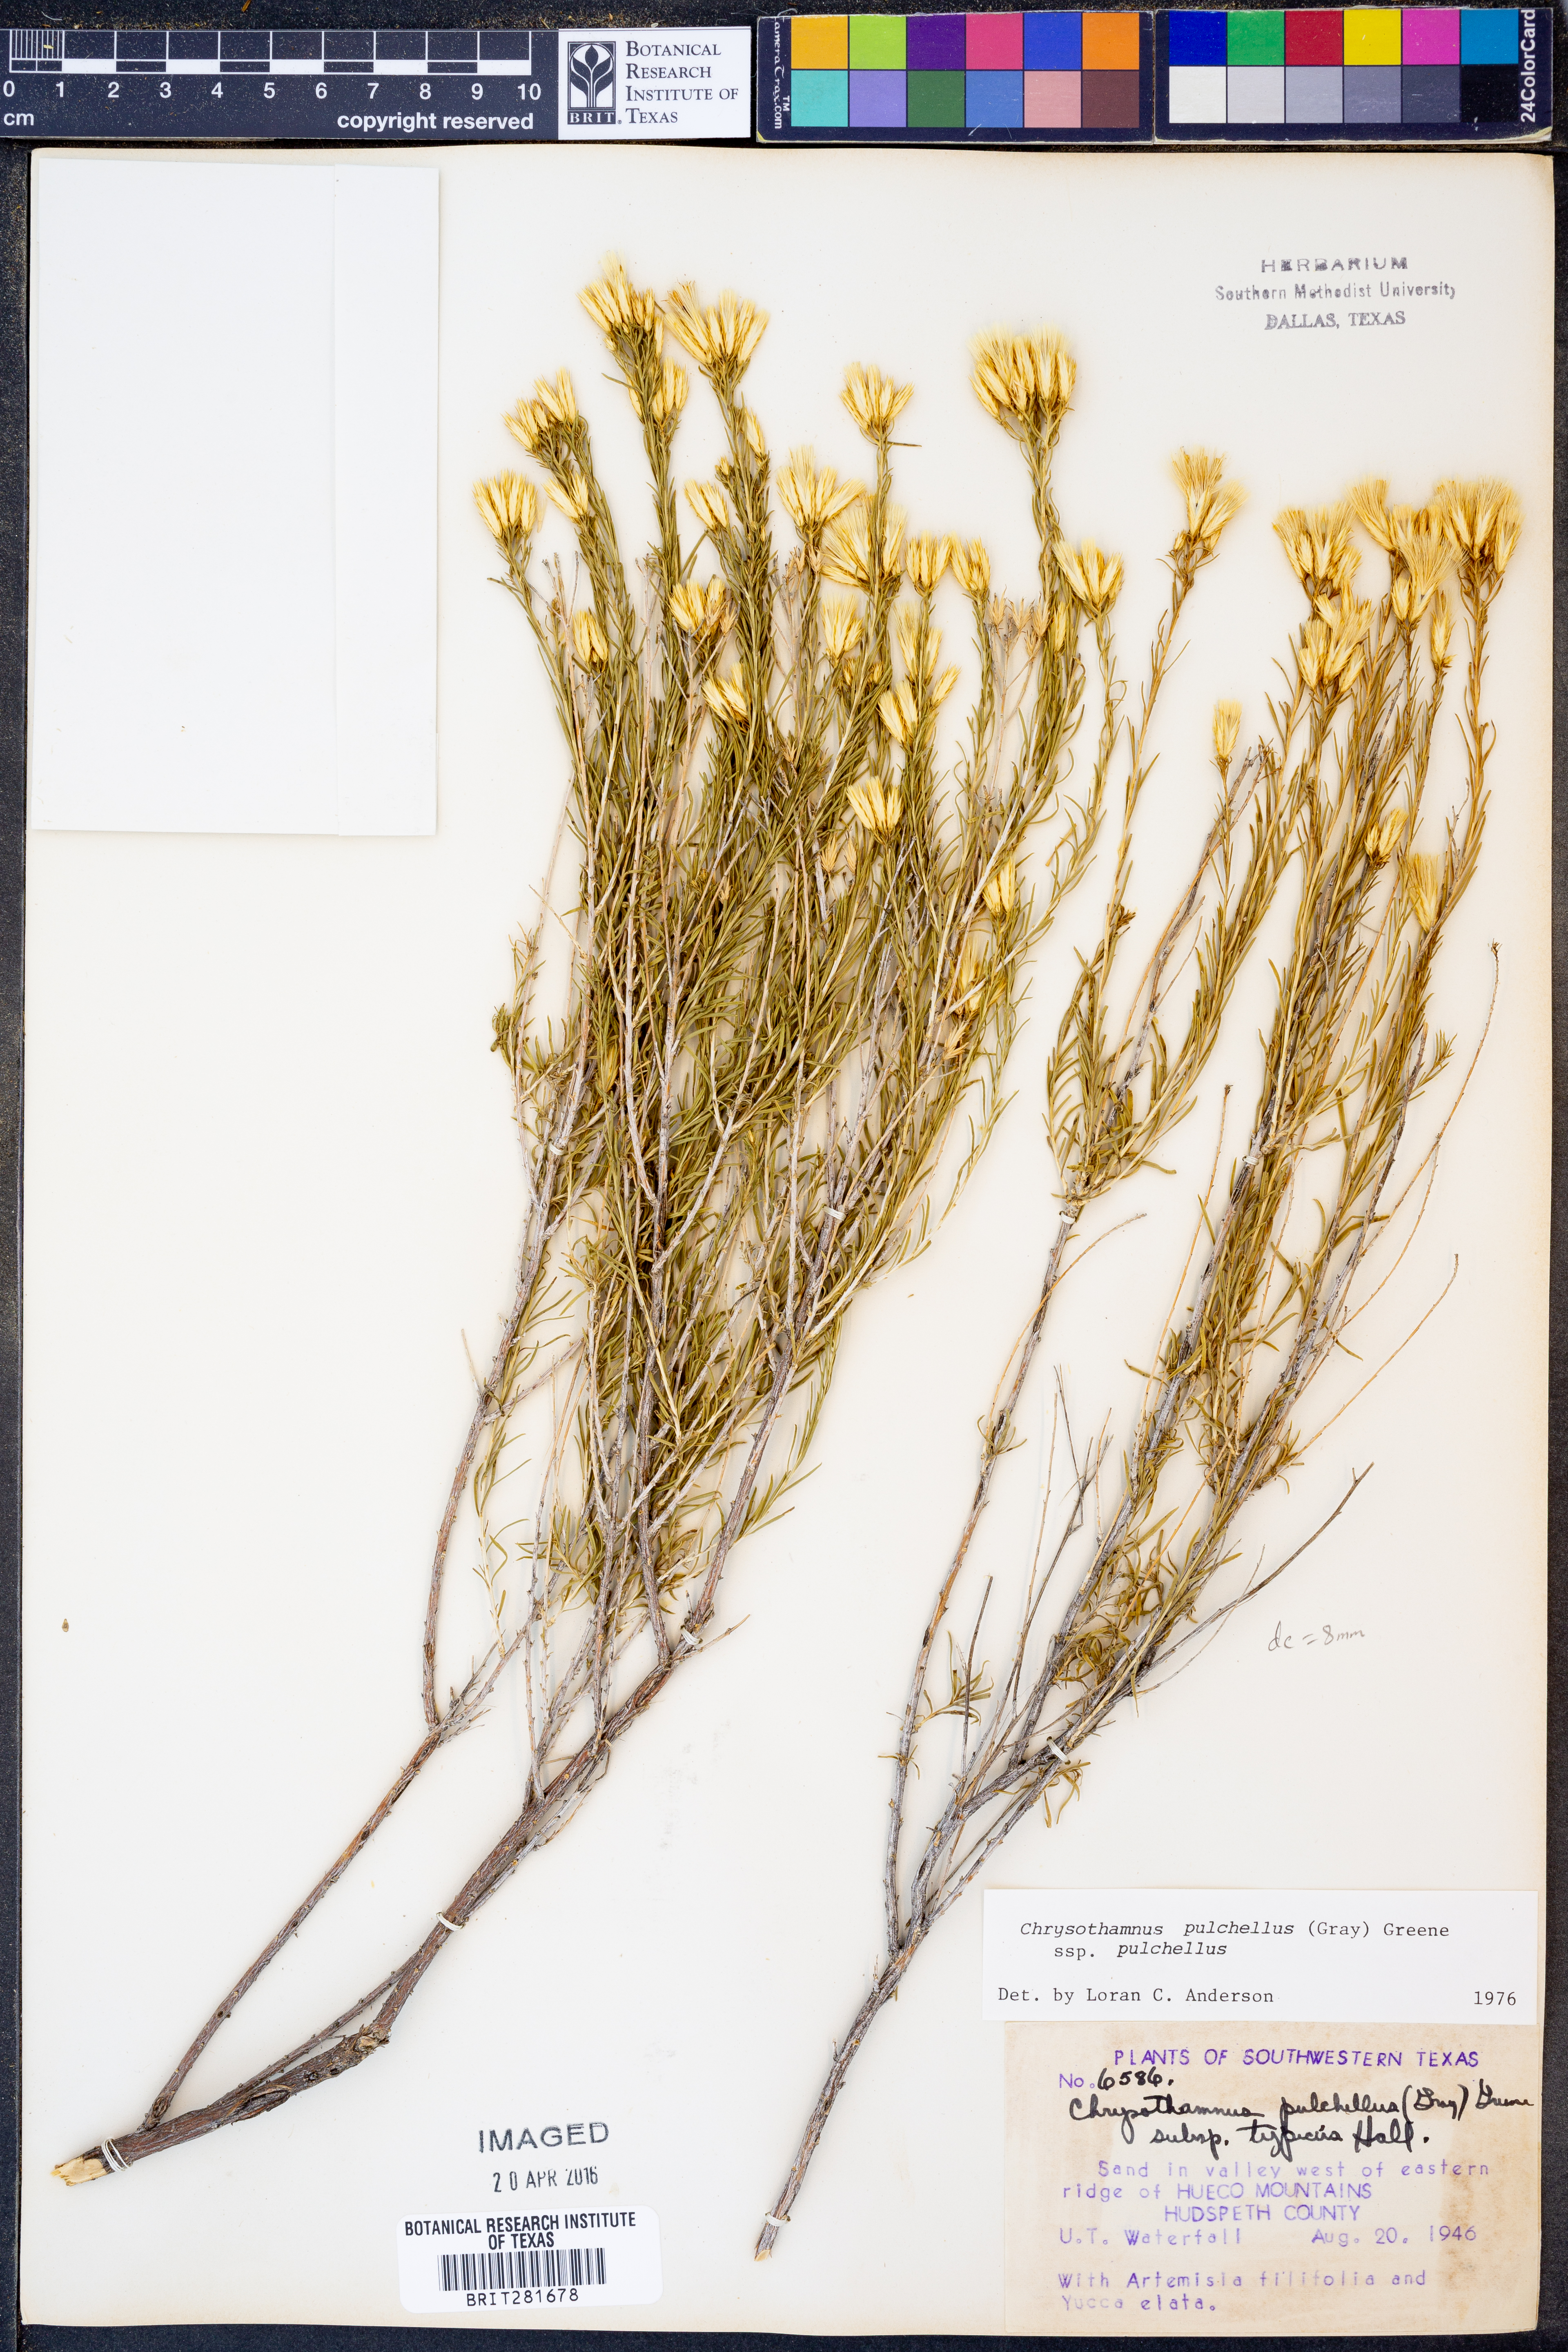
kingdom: Plantae
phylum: Tracheophyta
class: Magnoliopsida
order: Asterales
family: Asteraceae
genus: Lorandersonia
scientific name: Lorandersonia pulchella
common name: Southwestern rabbitbrush
